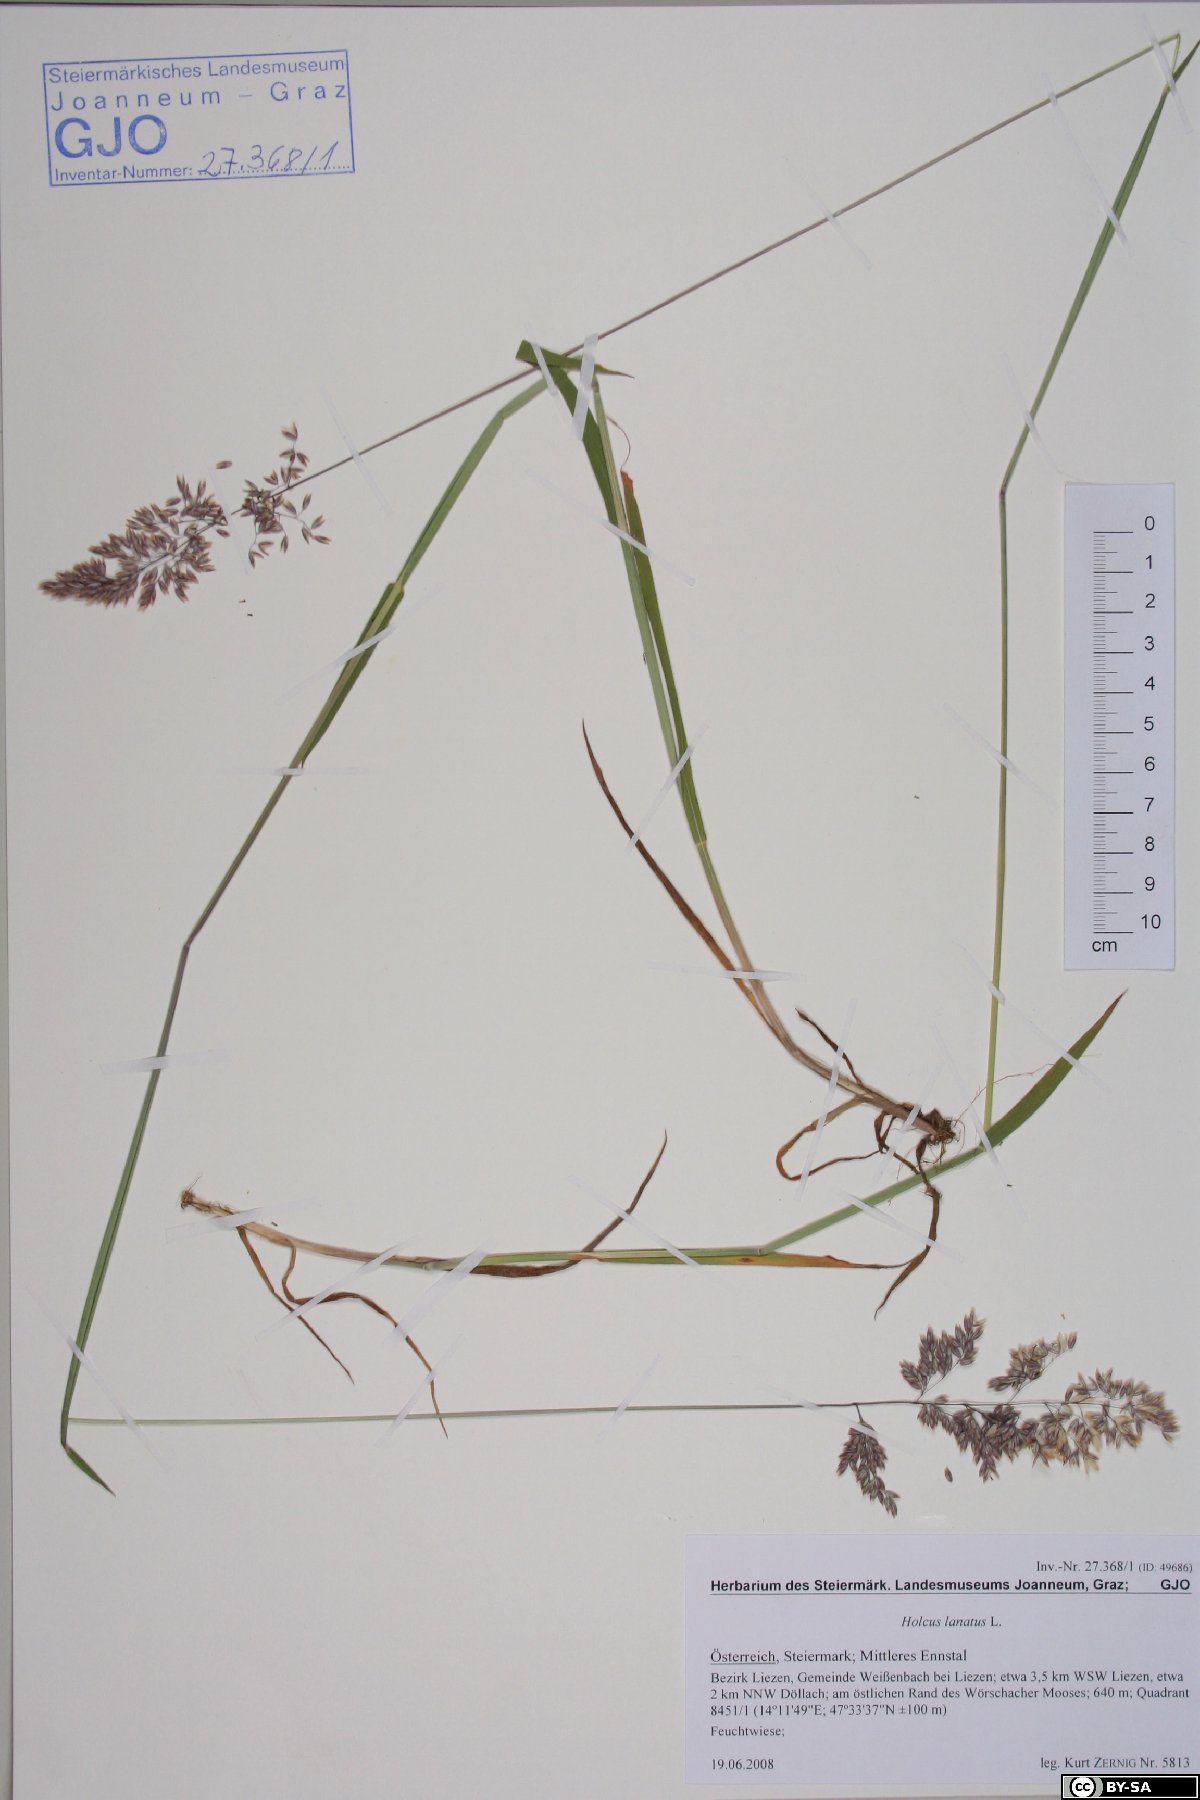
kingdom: Plantae
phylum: Tracheophyta
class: Liliopsida
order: Poales
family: Poaceae
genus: Holcus
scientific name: Holcus lanatus
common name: Yorkshire-fog
